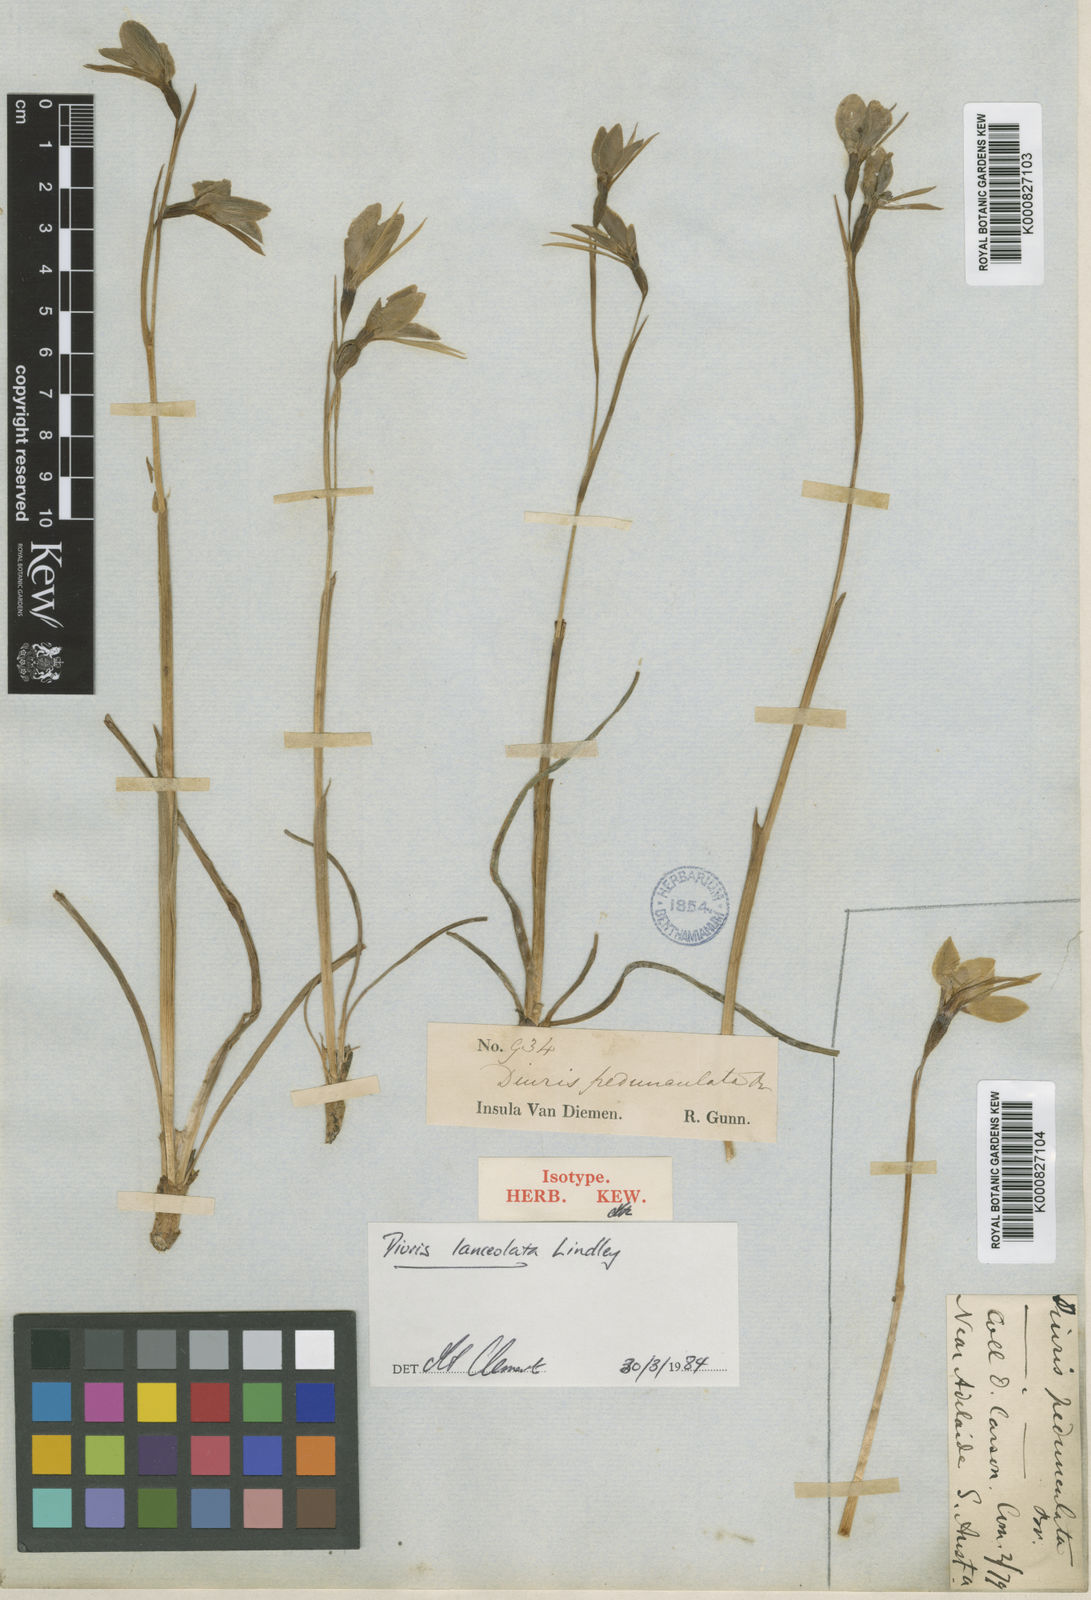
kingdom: Plantae
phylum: Tracheophyta
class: Liliopsida
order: Asparagales
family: Orchidaceae
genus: Diuris
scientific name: Diuris lanceolata
